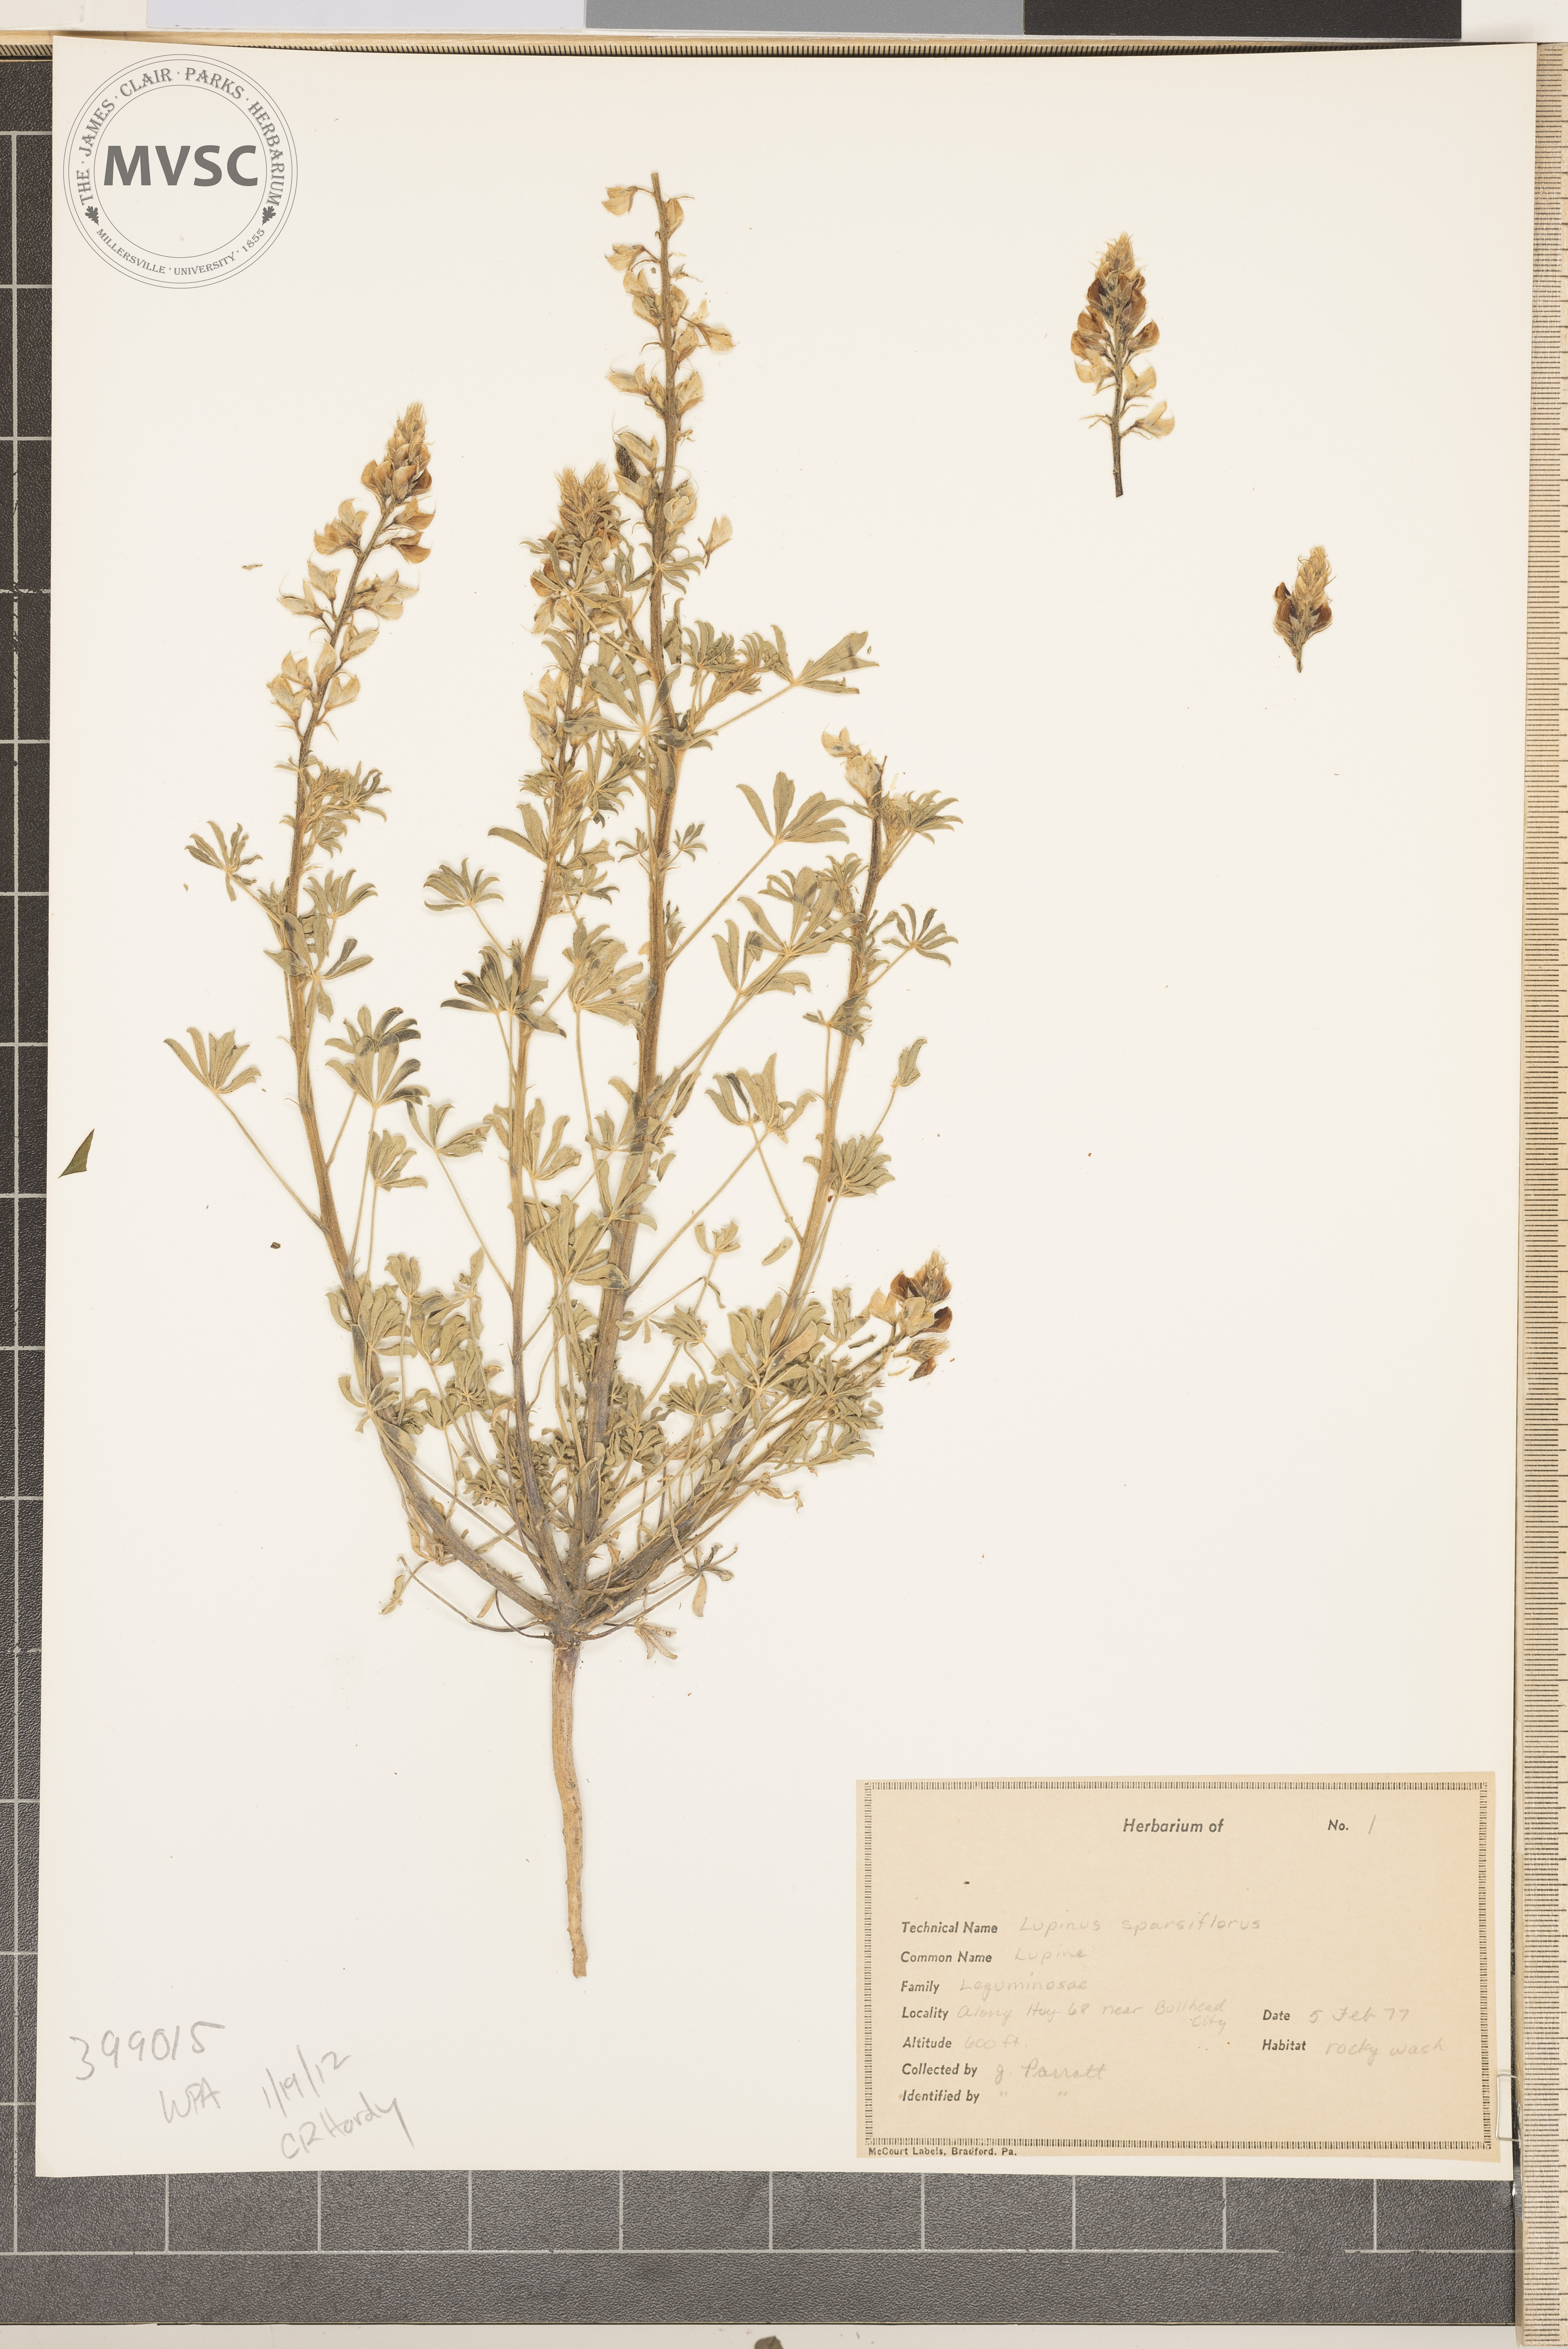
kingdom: Plantae
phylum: Tracheophyta
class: Magnoliopsida
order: Fabales
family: Fabaceae
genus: Lupinus
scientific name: Lupinus sparsiflorus
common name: Blue lupine
